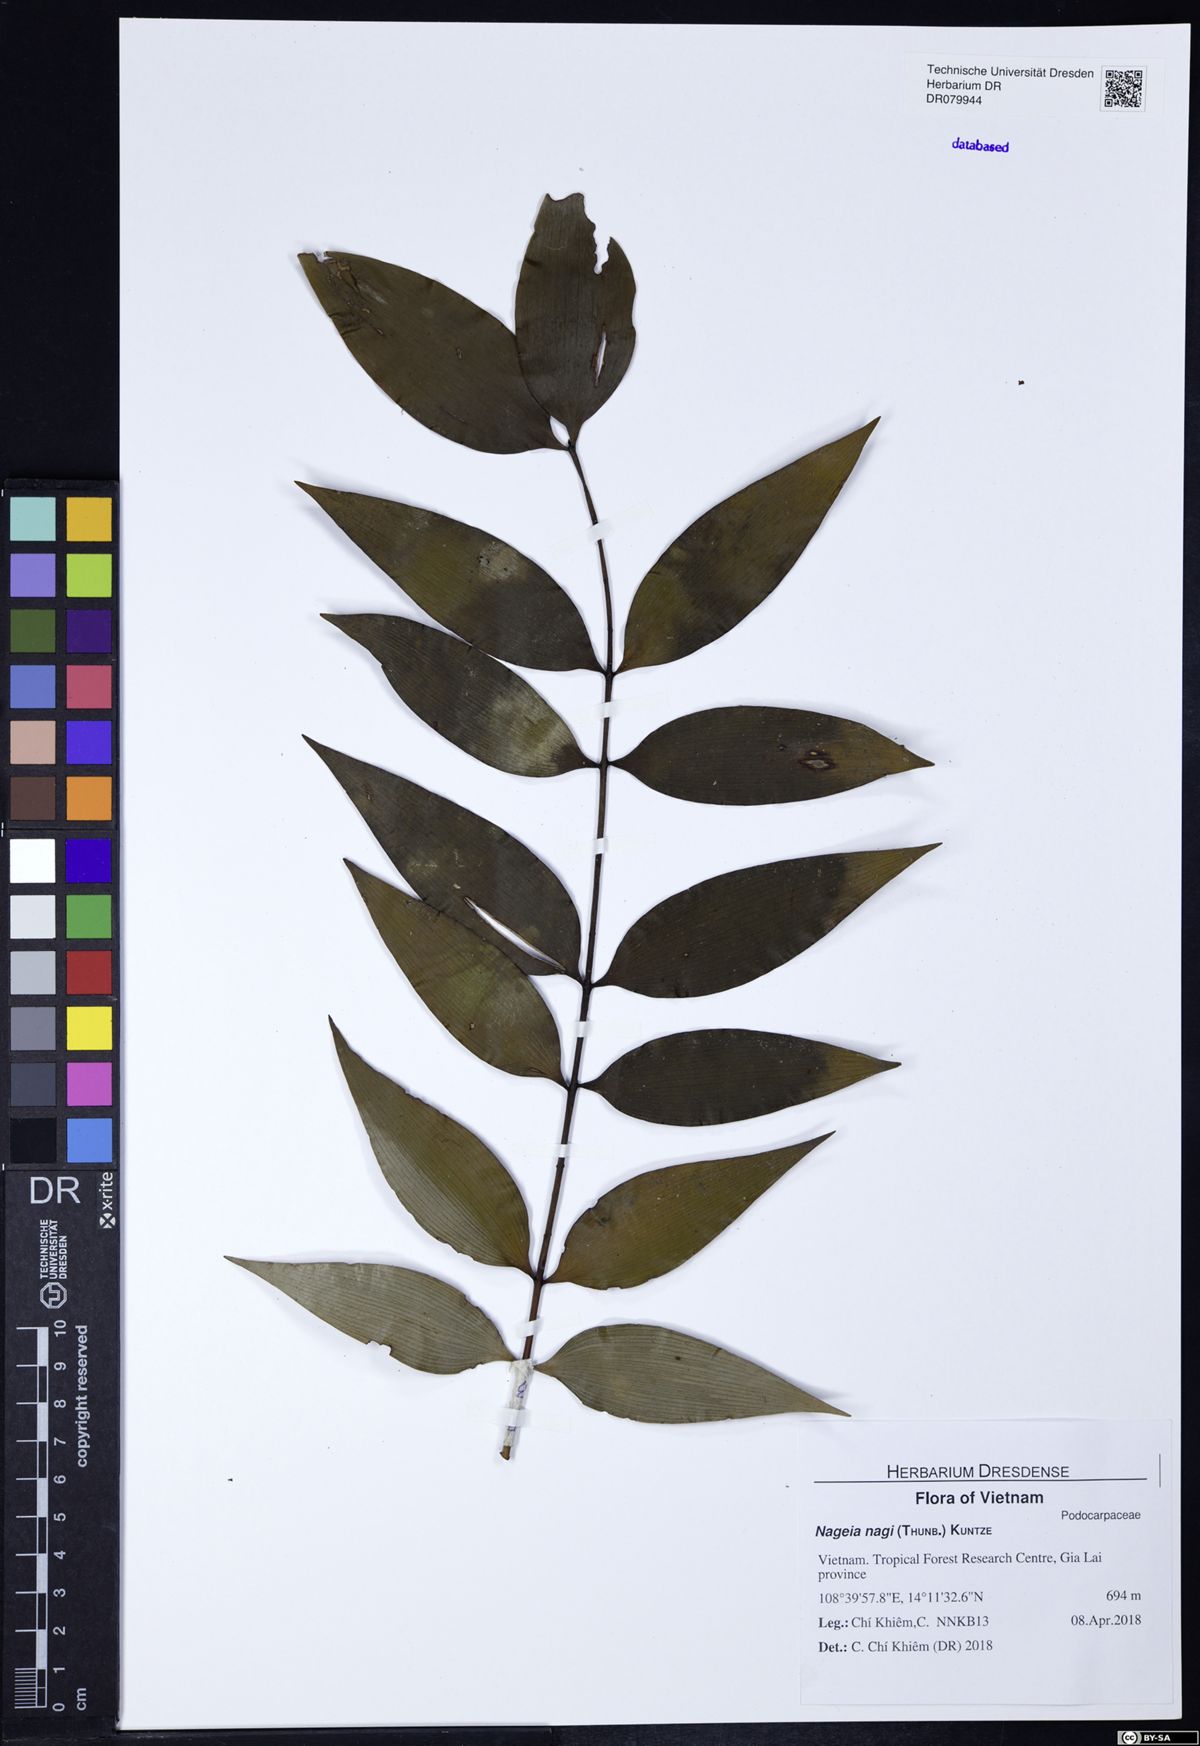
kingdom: Plantae
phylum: Tracheophyta
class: Pinopsida
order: Pinales
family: Podocarpaceae
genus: Nageia
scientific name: Nageia nagi
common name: Kaphal
